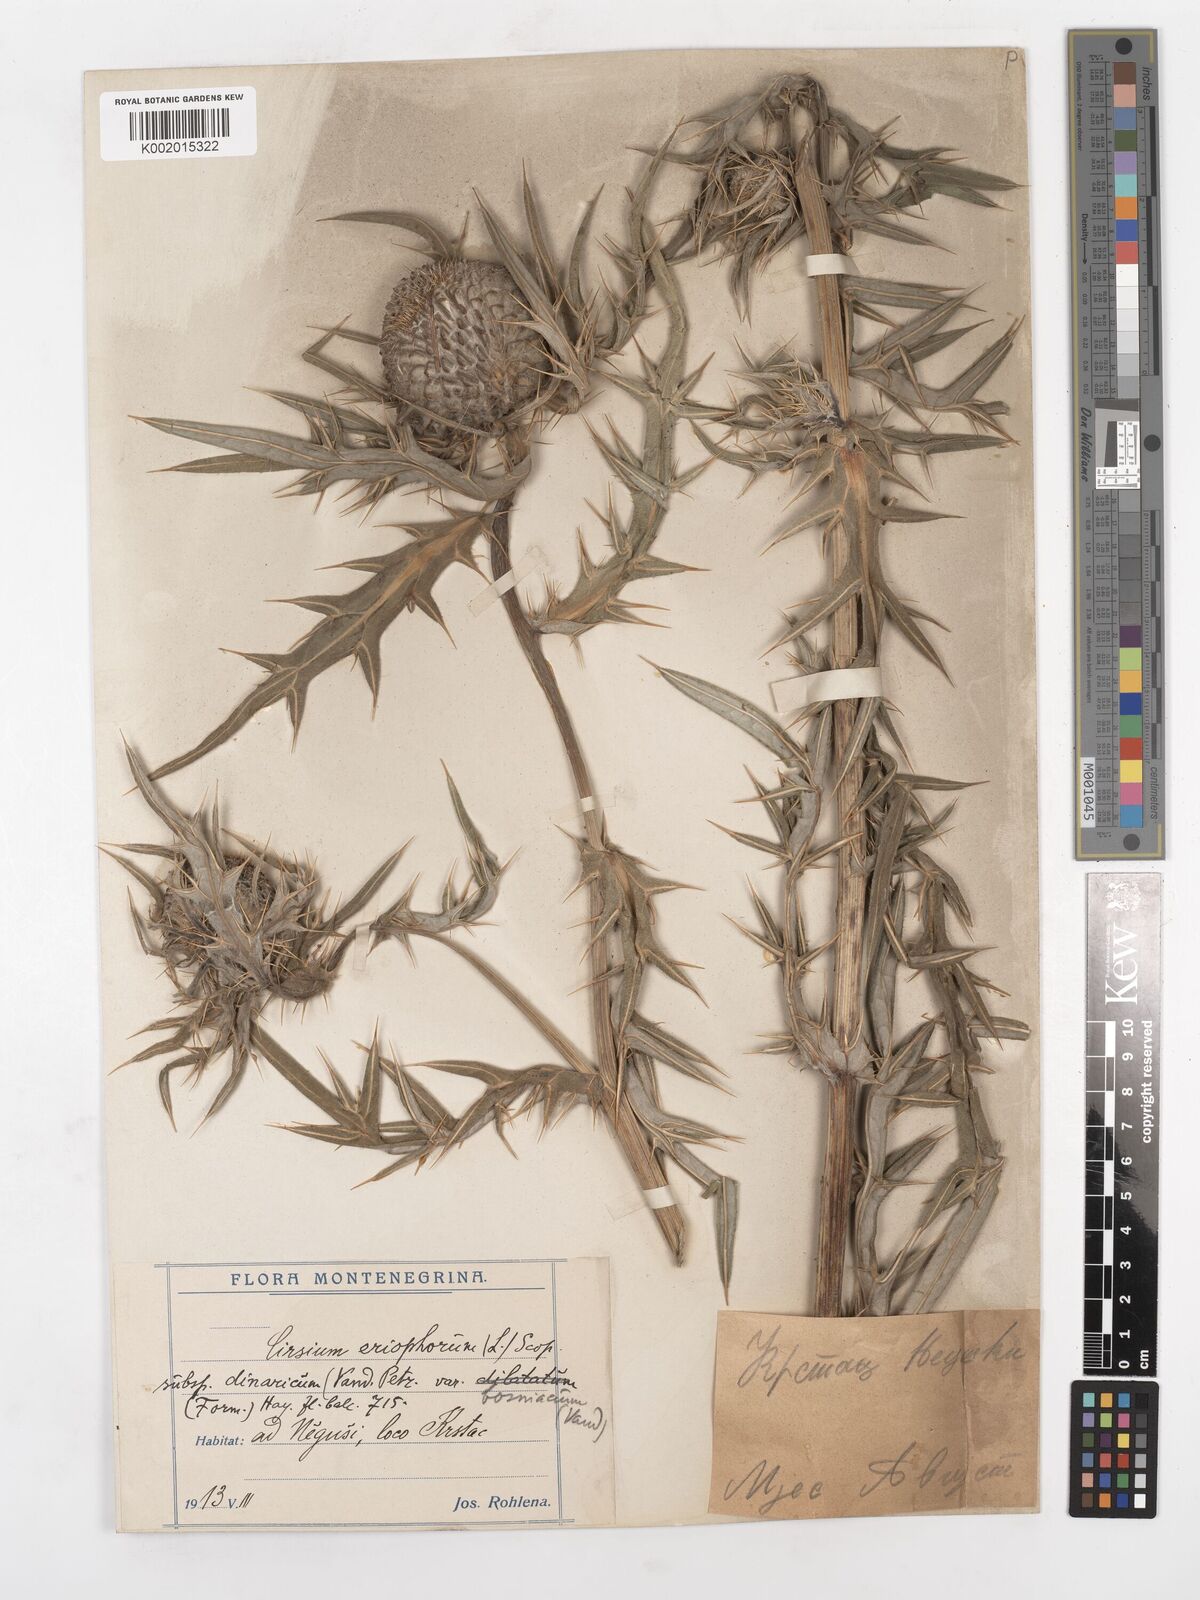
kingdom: Plantae
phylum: Tracheophyta
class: Magnoliopsida
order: Asterales
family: Asteraceae
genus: Lophiolepis
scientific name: Lophiolepis eriophora
